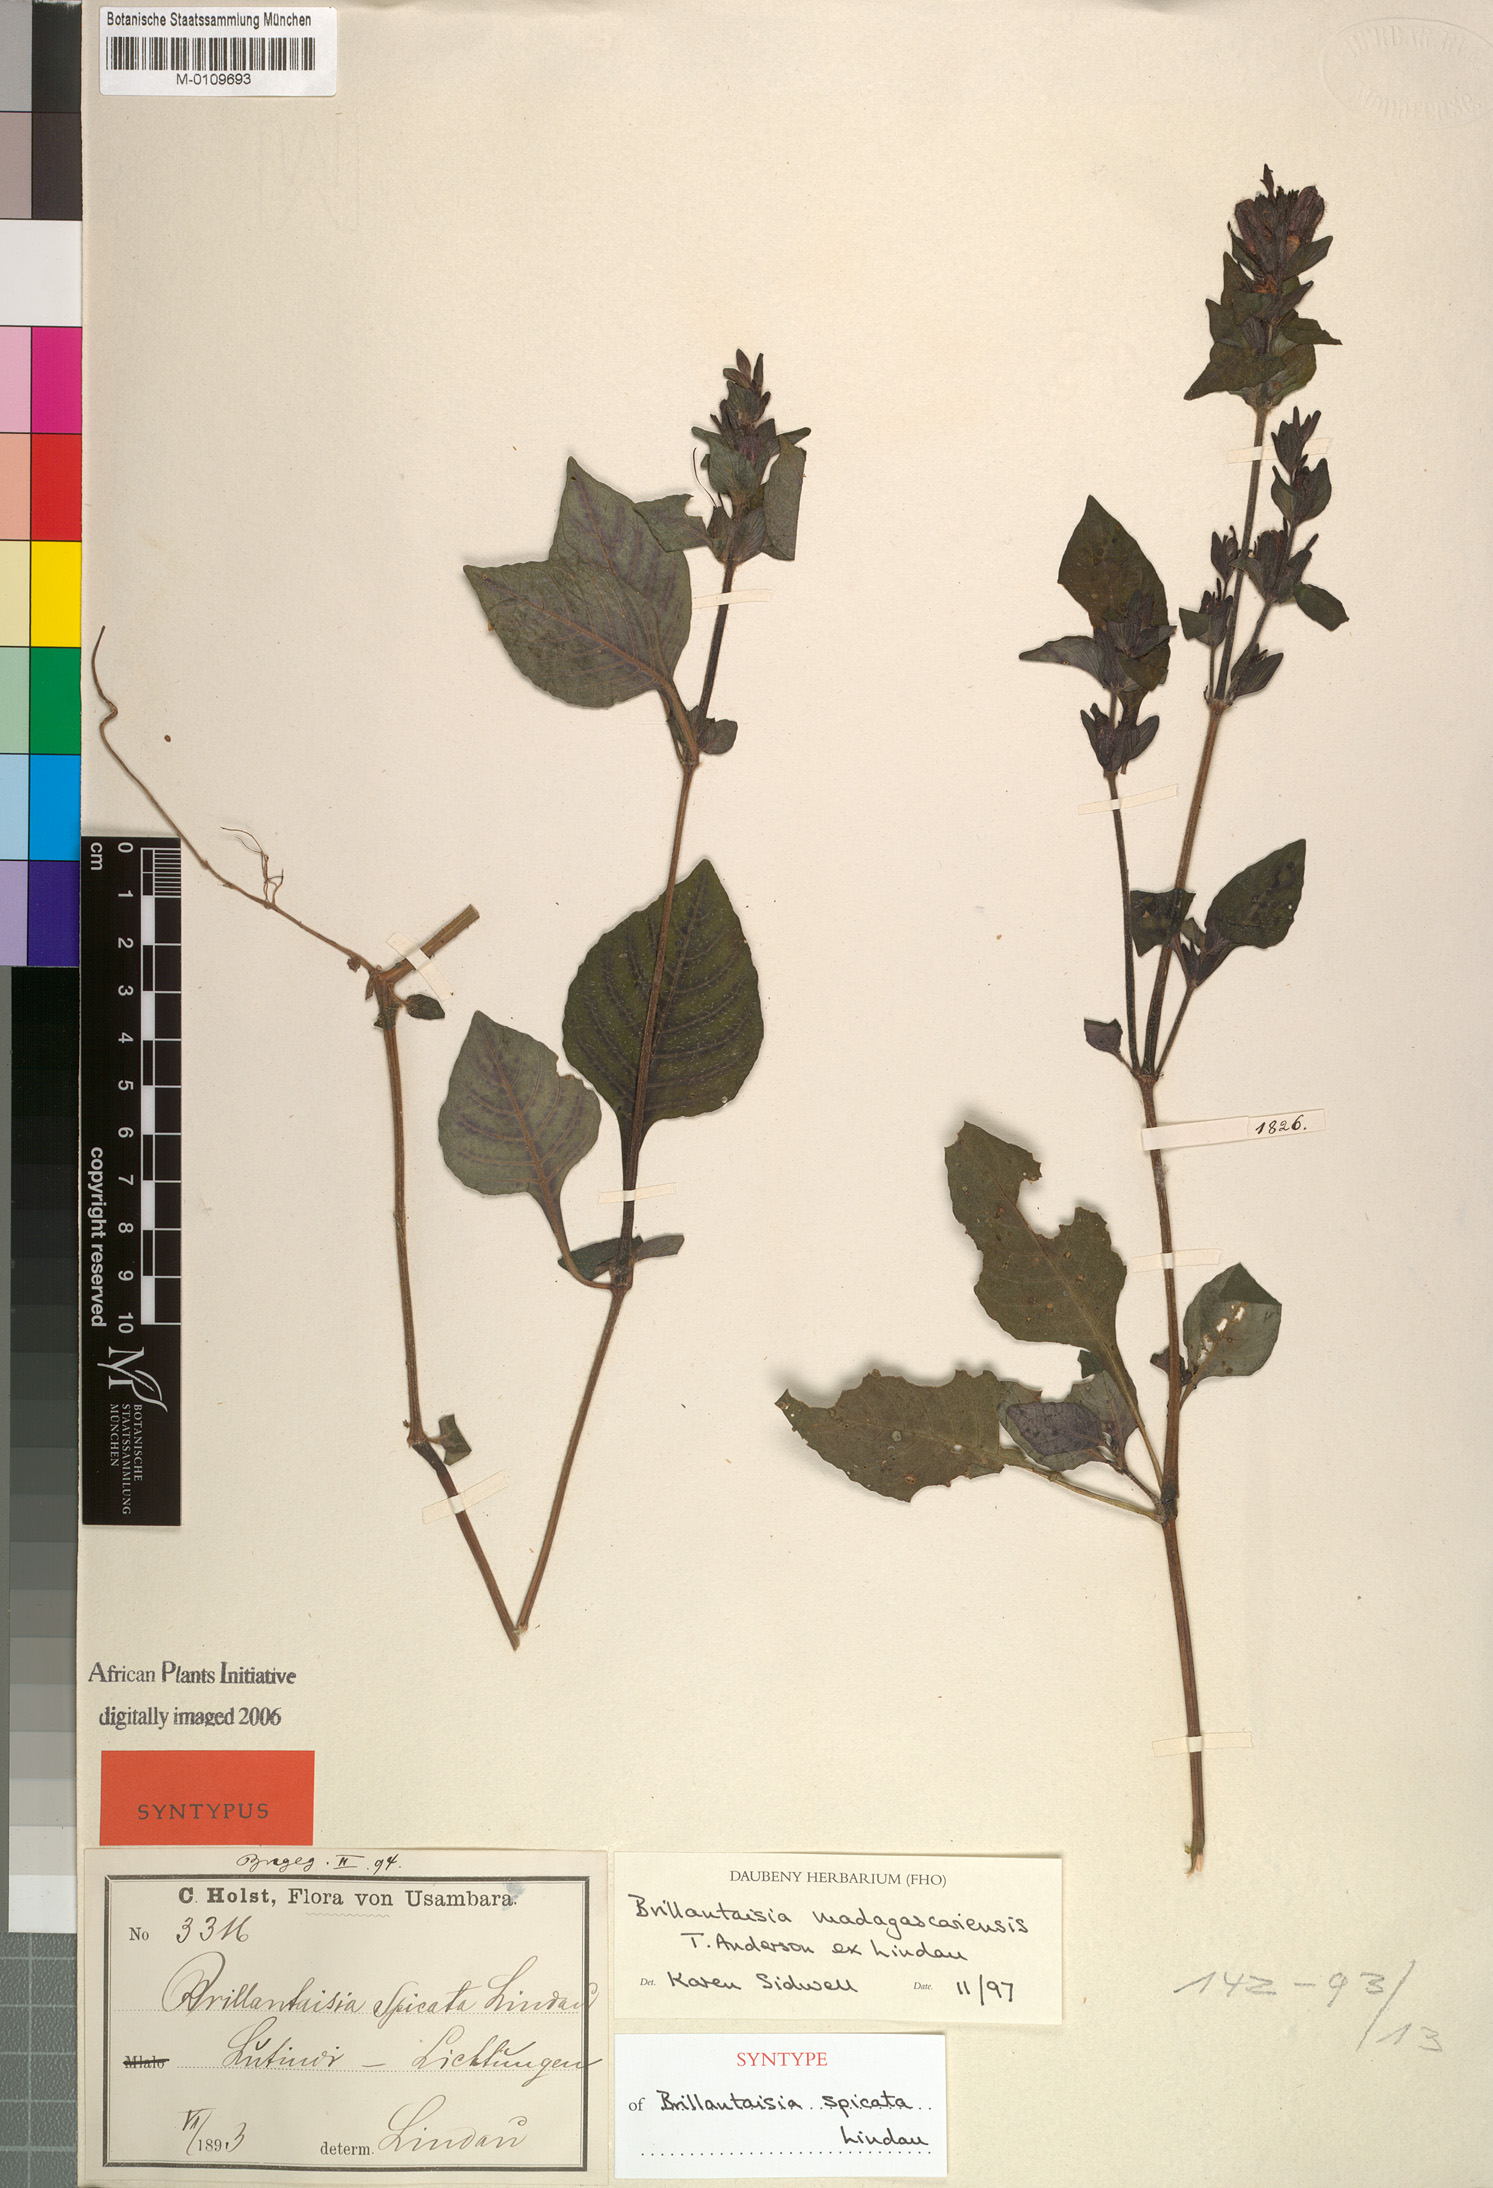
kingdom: Plantae
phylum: Tracheophyta
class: Magnoliopsida
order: Lamiales
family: Acanthaceae
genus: Brillantaisia
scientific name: Brillantaisia madagascariensis
